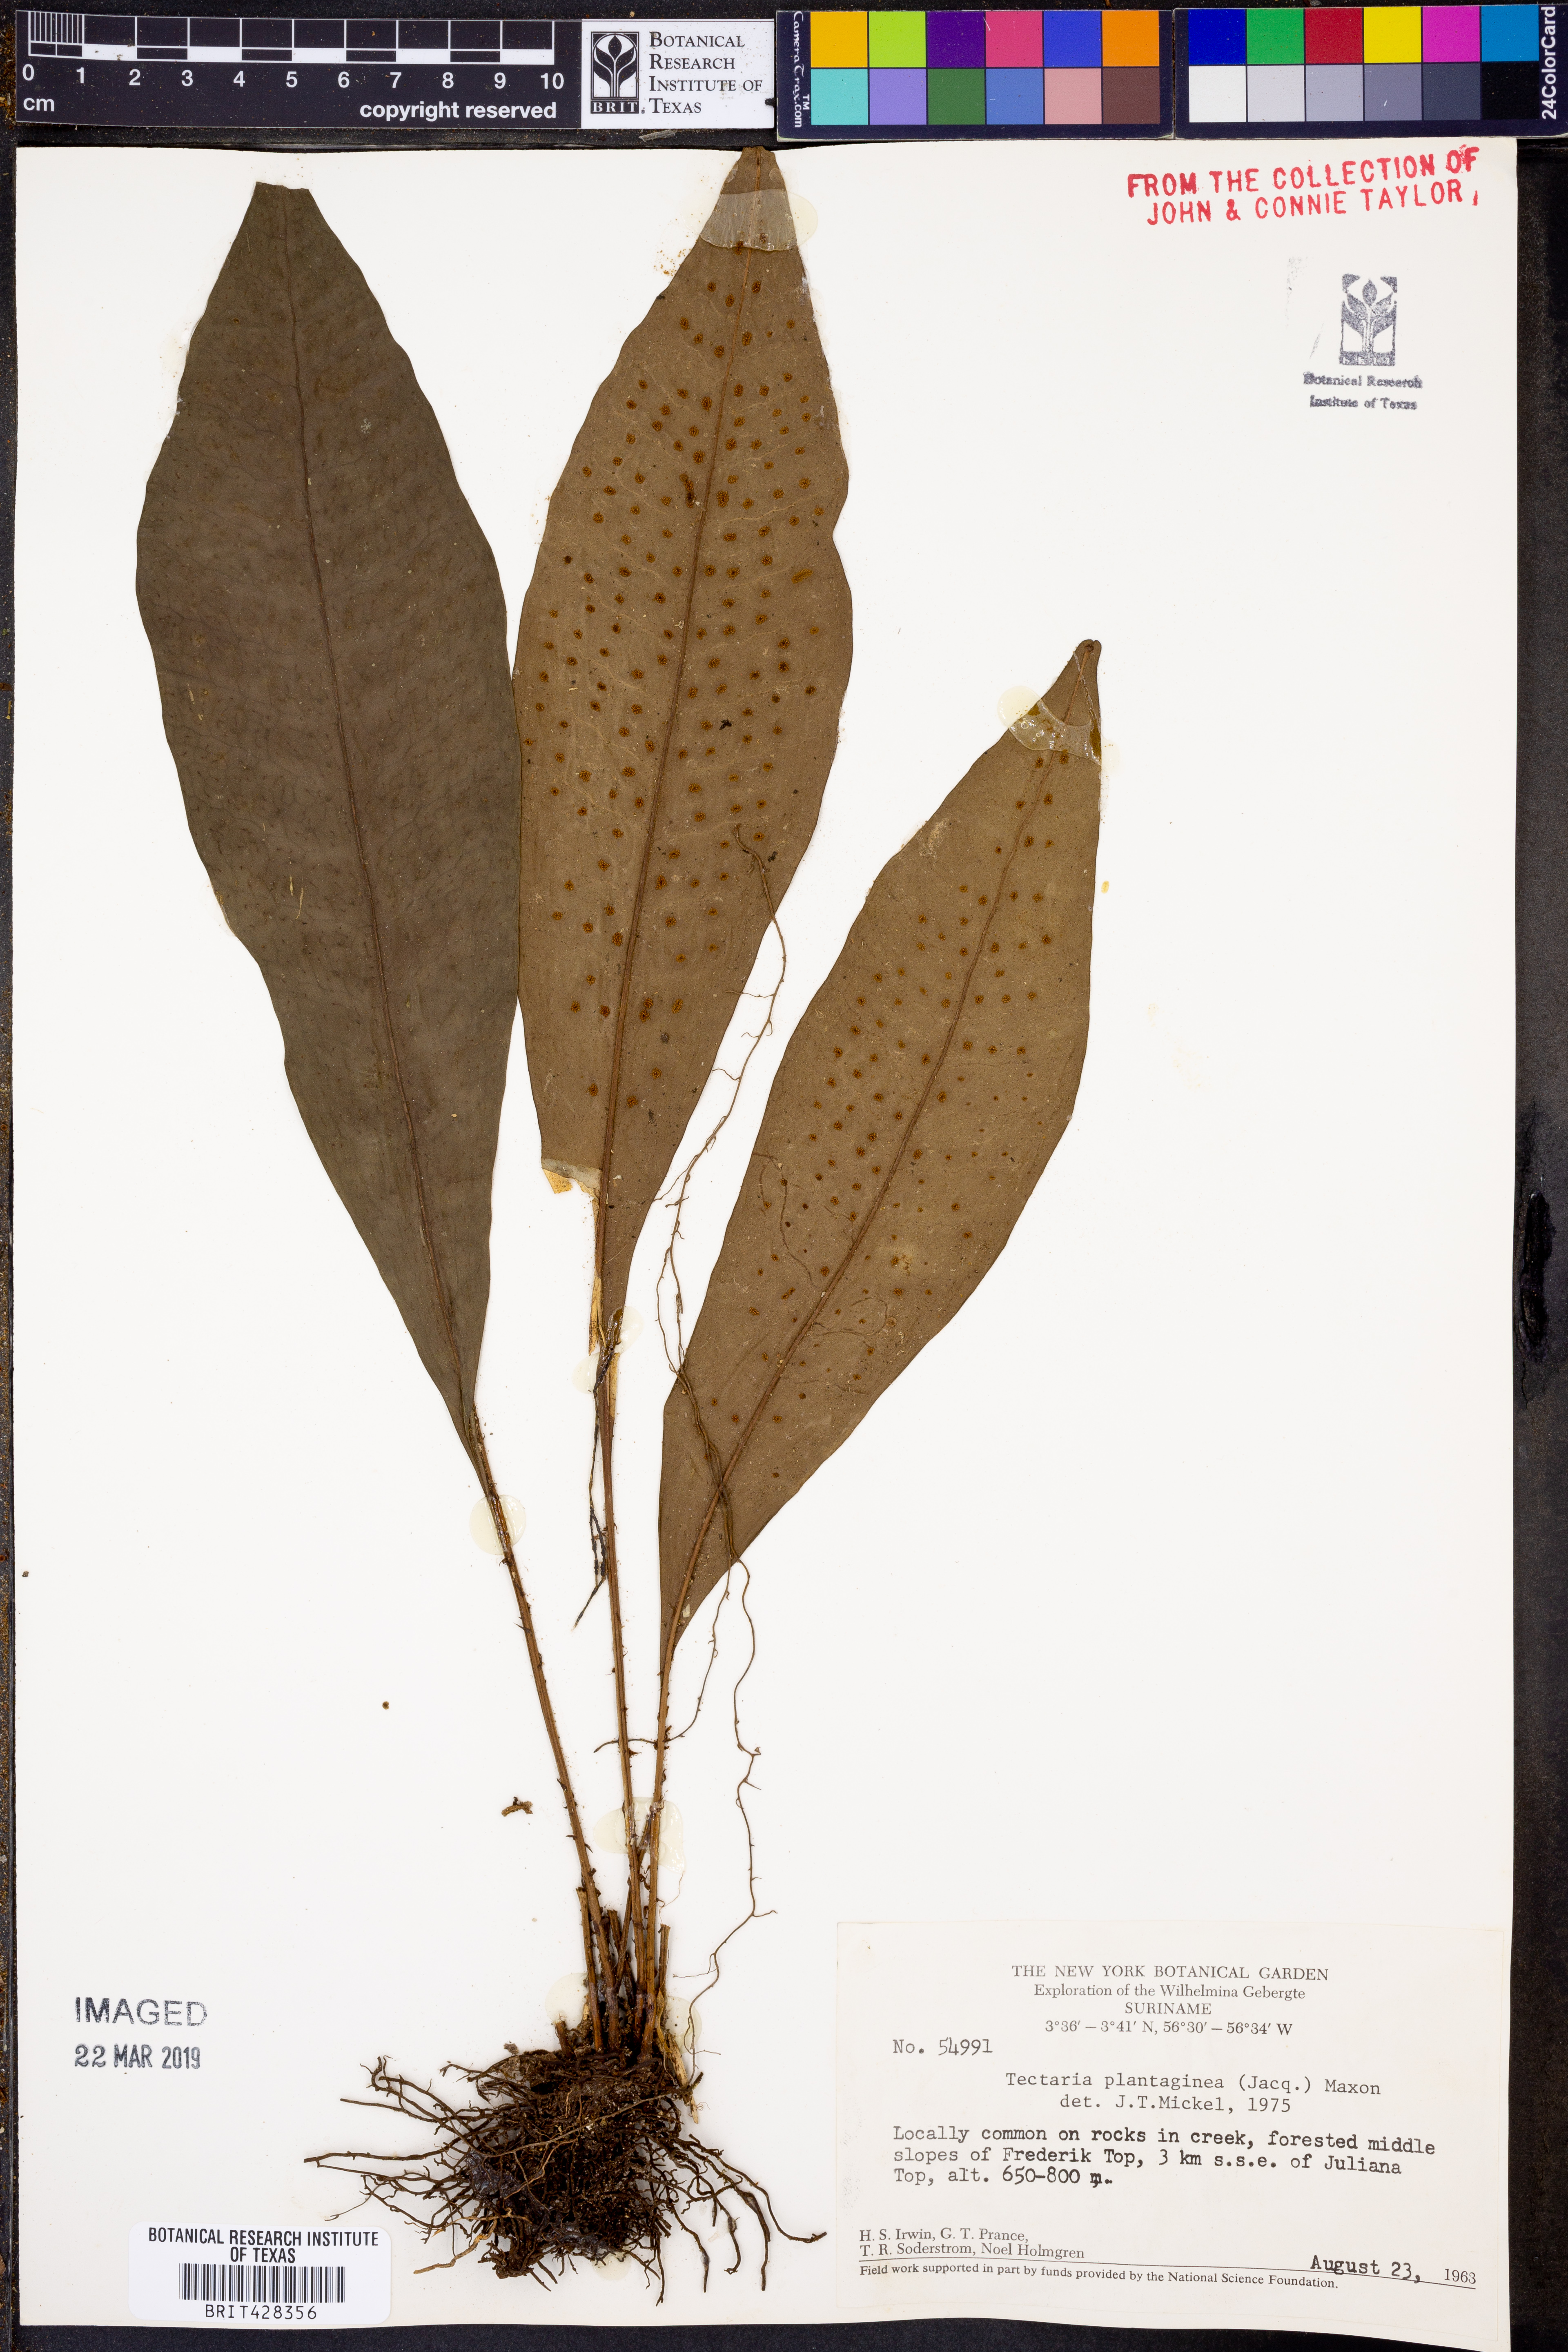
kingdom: Plantae
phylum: Tracheophyta
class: Polypodiopsida
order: Polypodiales
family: Lomariopsidaceae
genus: Dracoglossum
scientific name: Dracoglossum plantagineum
